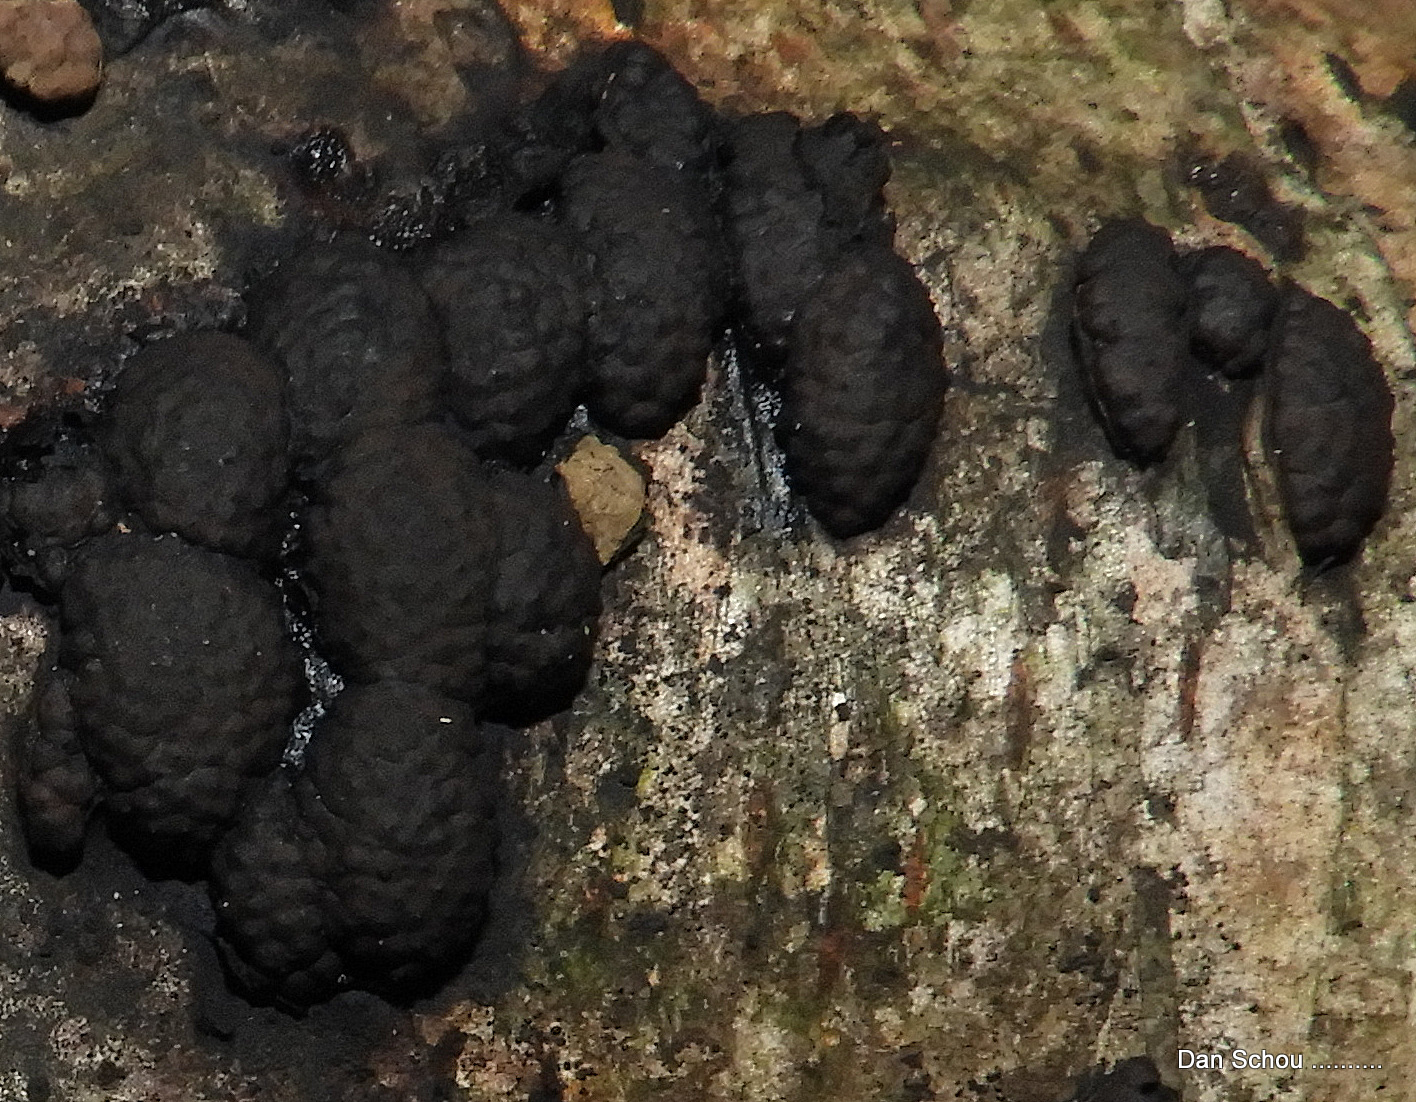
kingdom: Fungi
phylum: Ascomycota
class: Sordariomycetes
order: Xylariales
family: Hypoxylaceae
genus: Jackrogersella
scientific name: Jackrogersella multiformis
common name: foranderlig kulbær
